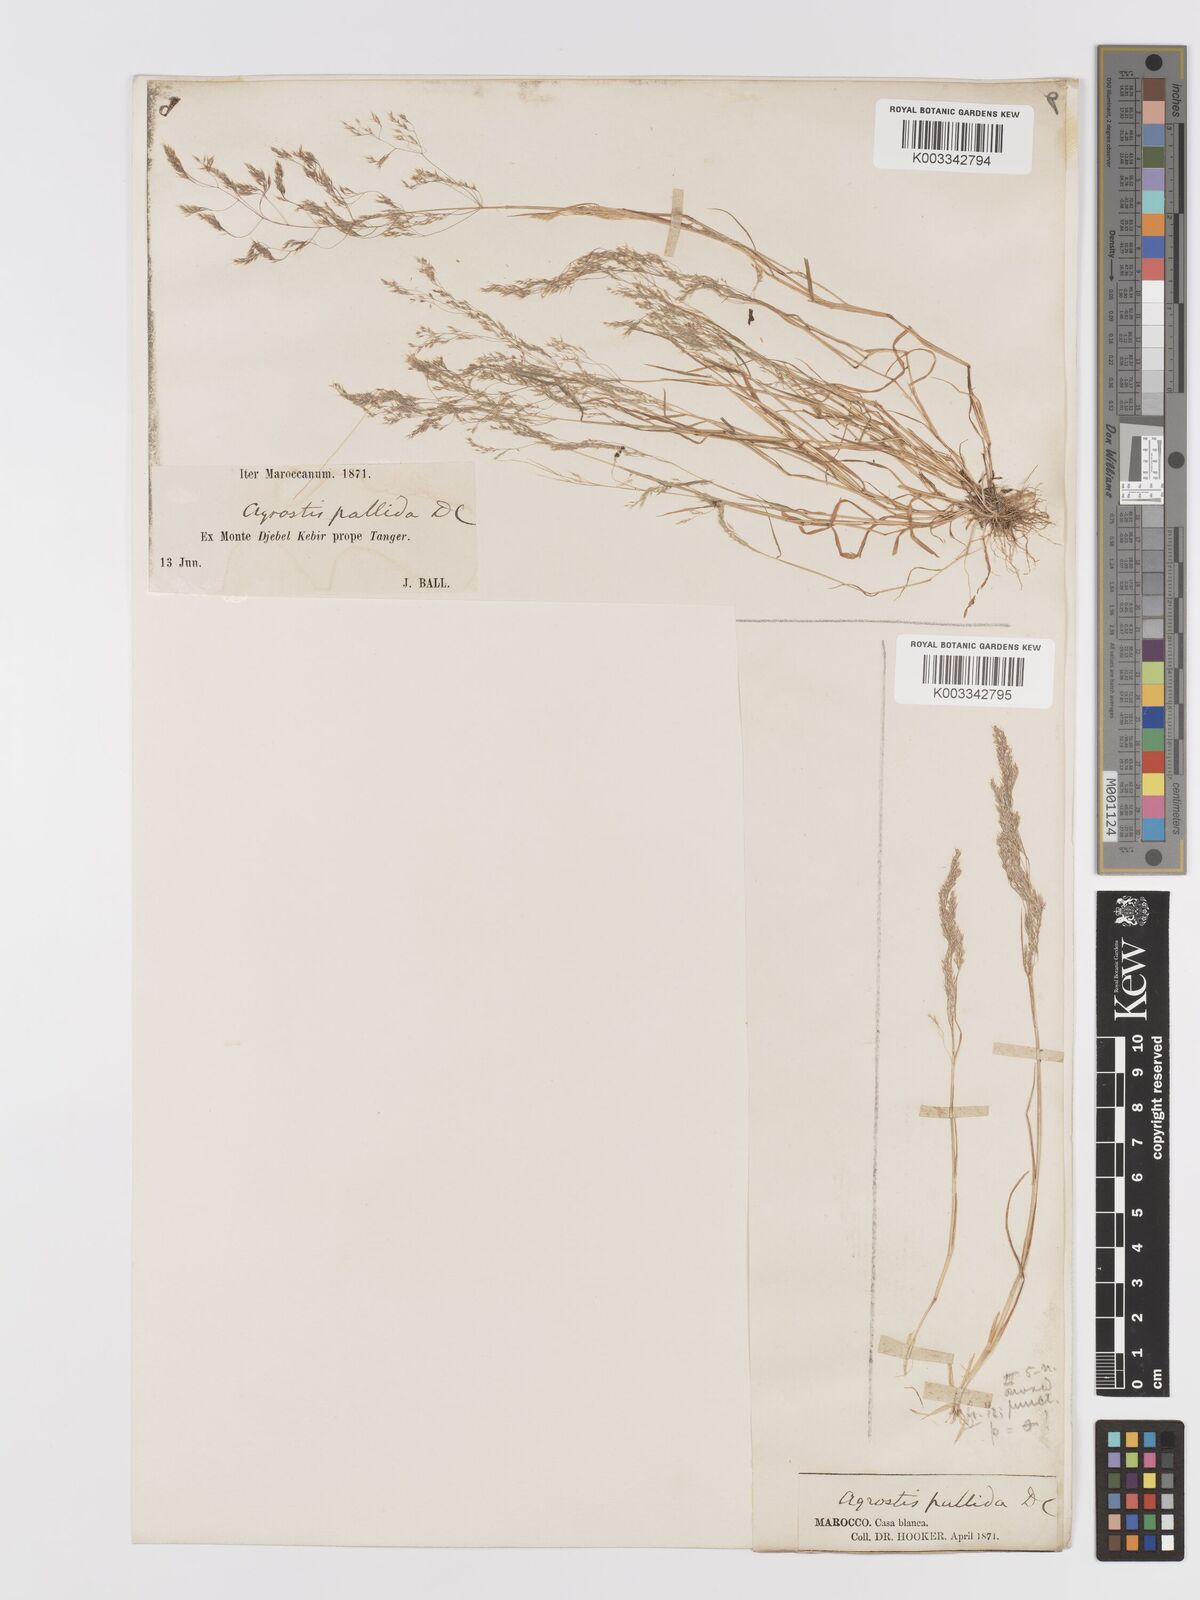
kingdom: Plantae
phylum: Tracheophyta
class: Liliopsida
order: Poales
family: Poaceae
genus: Agrostis
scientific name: Agrostis pourretii
